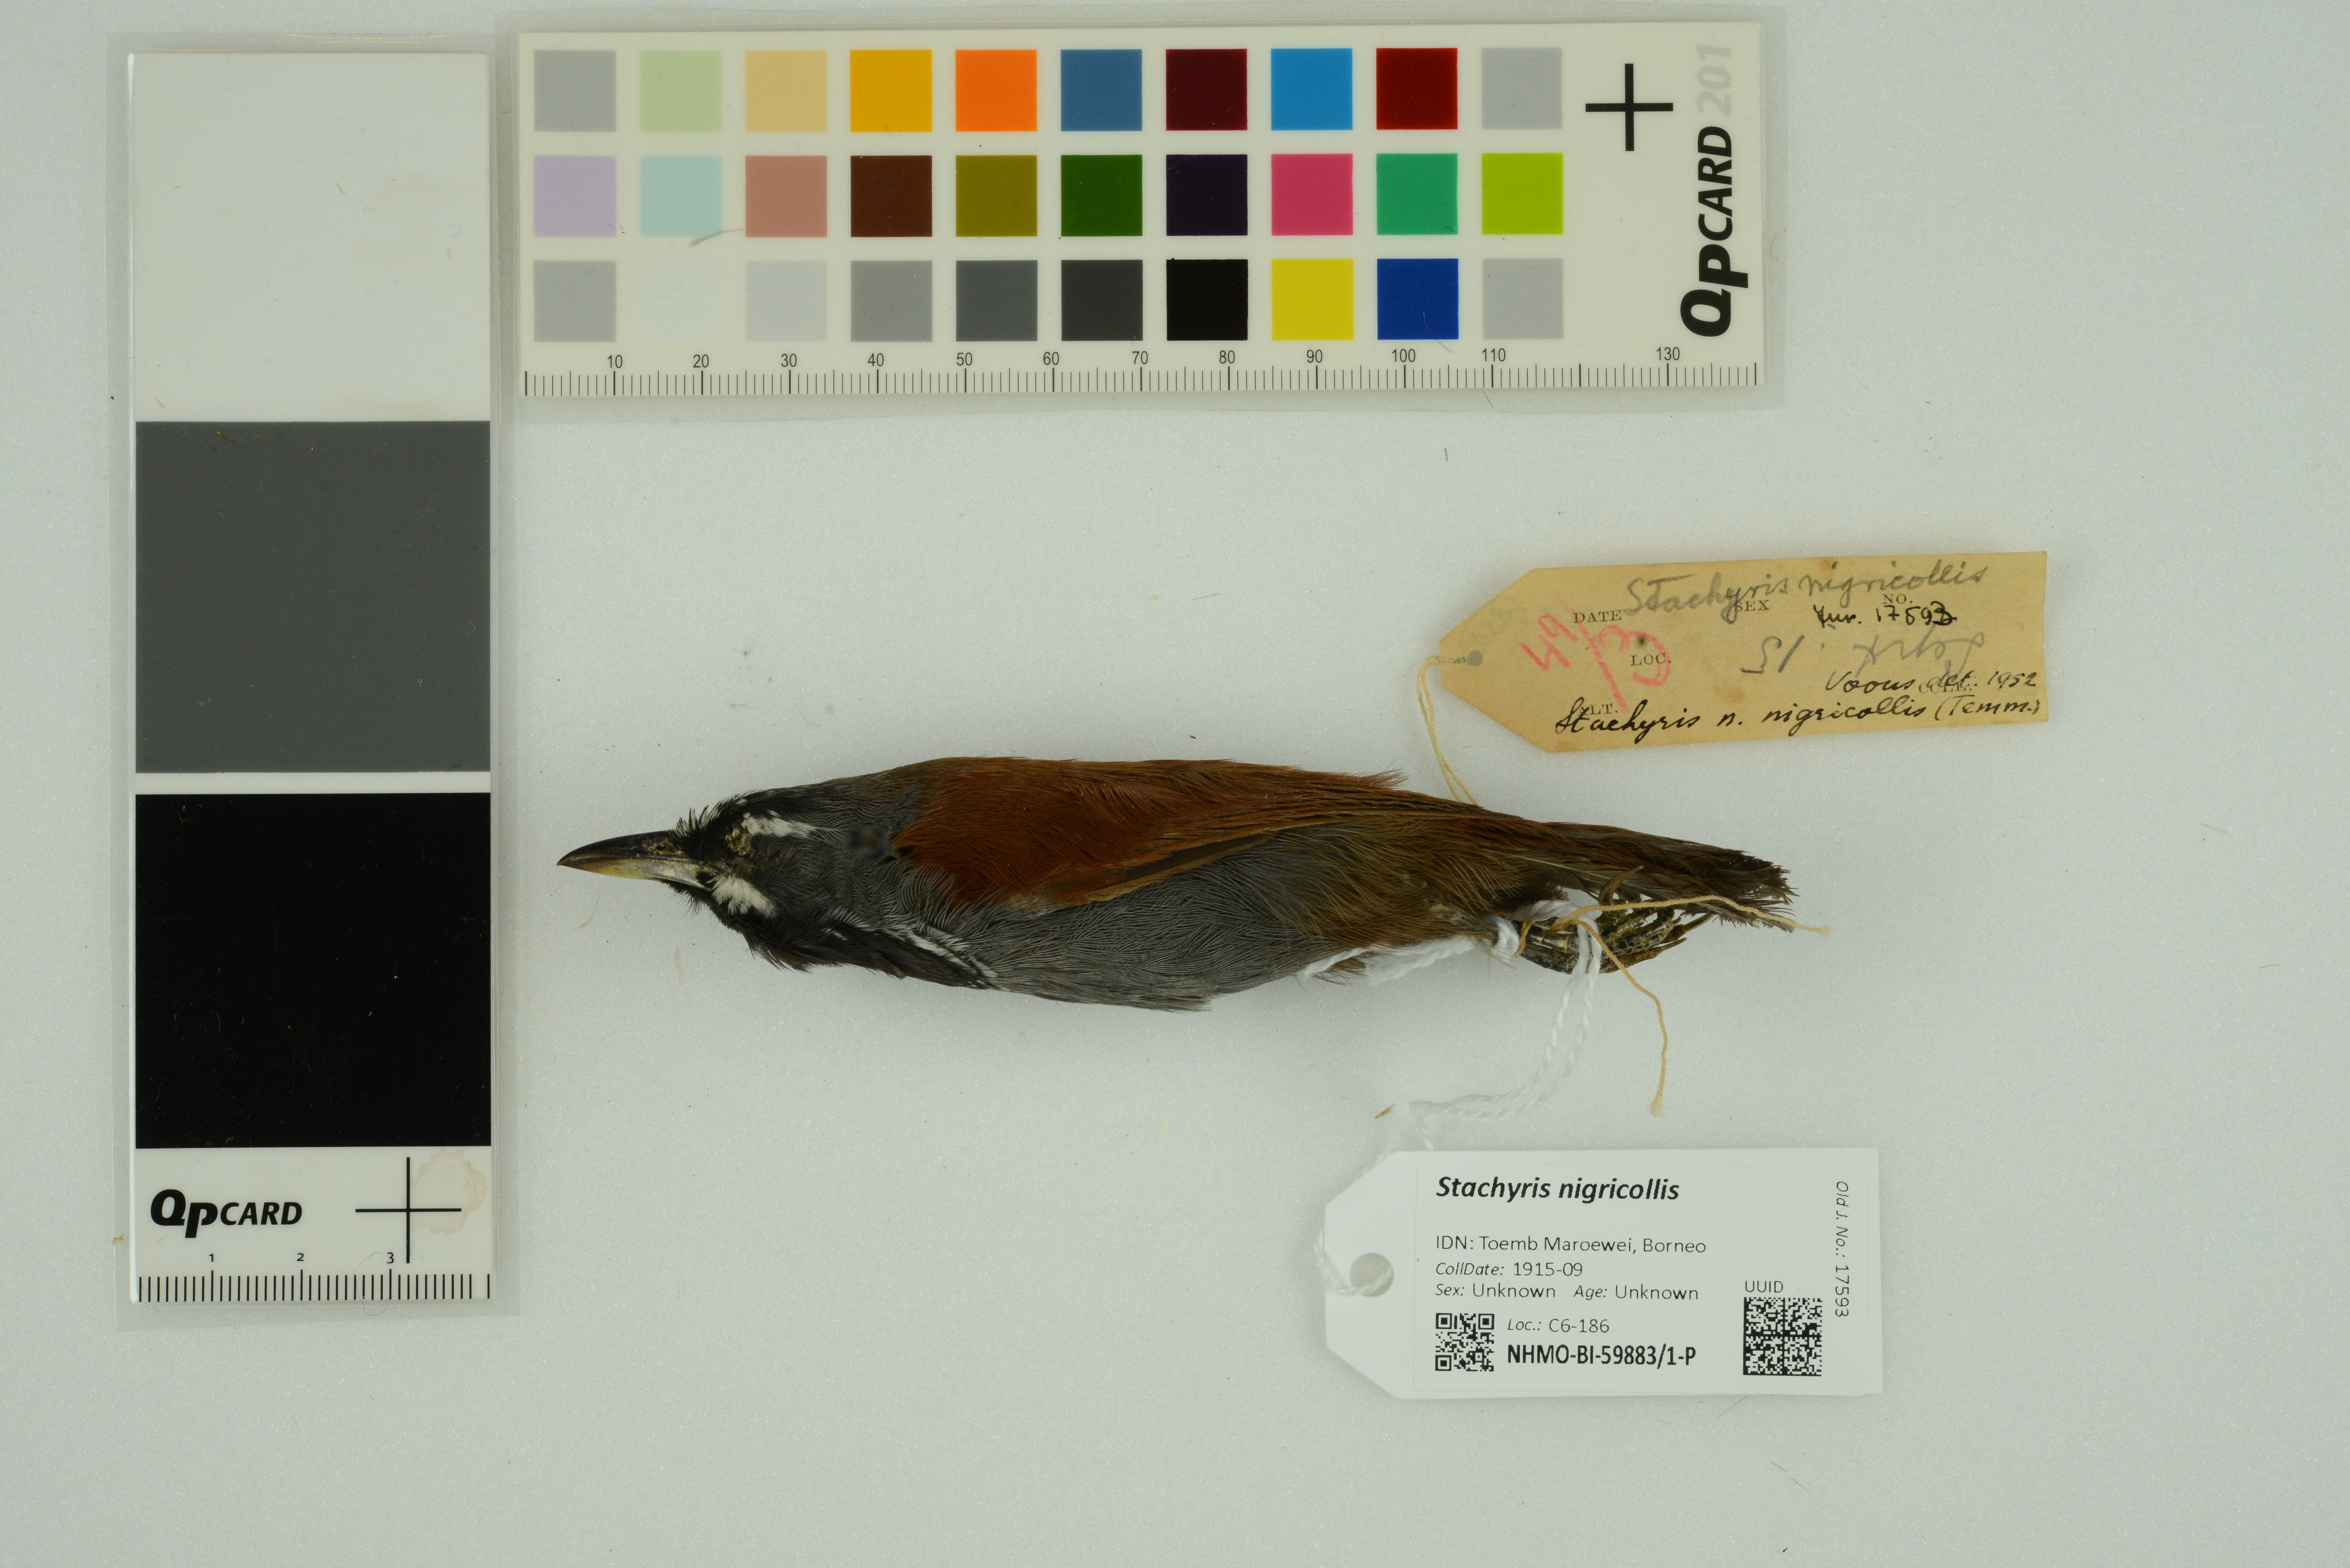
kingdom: Animalia
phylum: Chordata
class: Aves
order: Passeriformes
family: Timaliidae
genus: Stachyris
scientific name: Stachyris nigricollis
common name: Black-throated babbler
